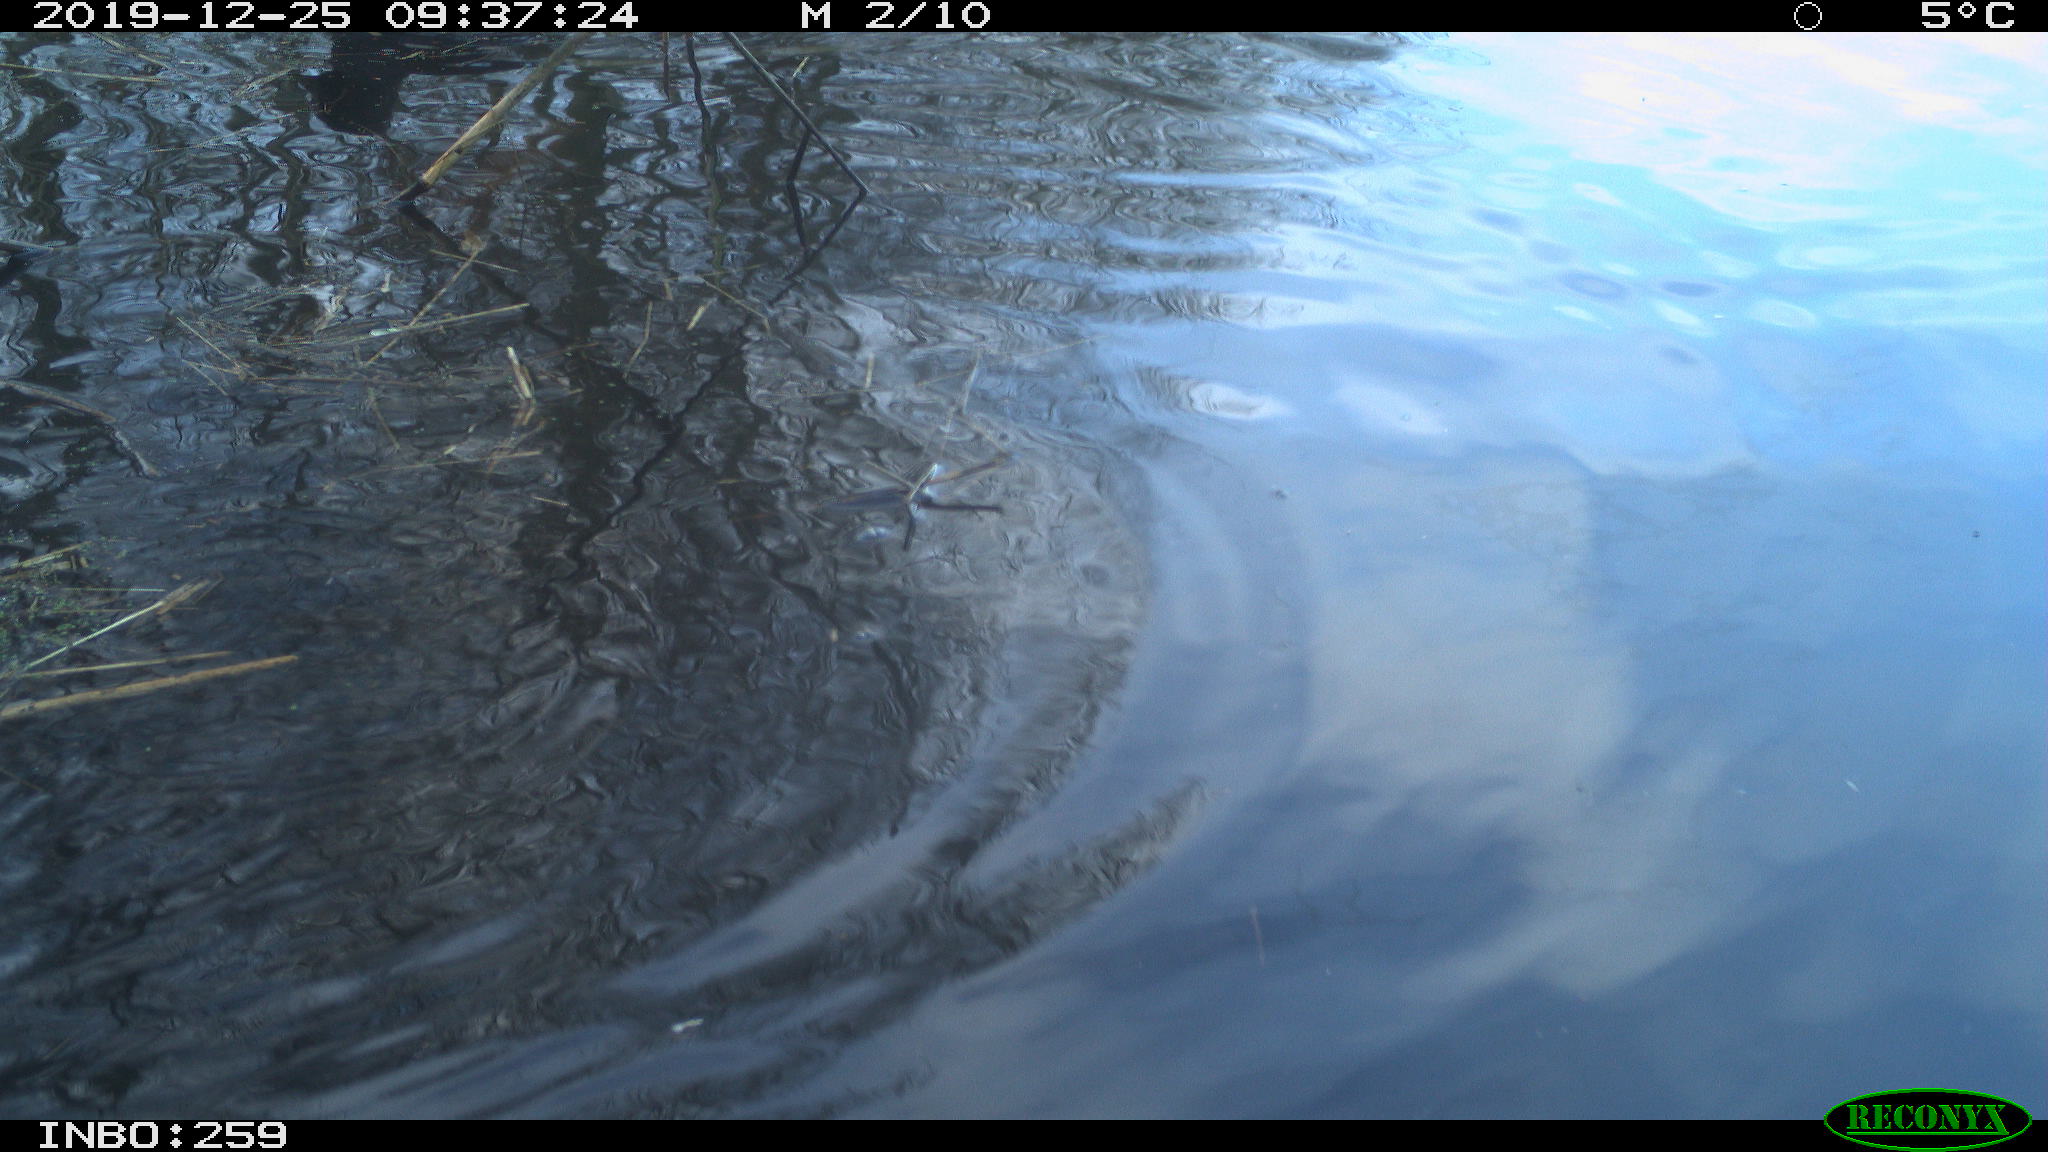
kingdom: Animalia
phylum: Chordata
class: Aves
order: Gruiformes
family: Rallidae
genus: Gallinula
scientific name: Gallinula chloropus
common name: Common moorhen
